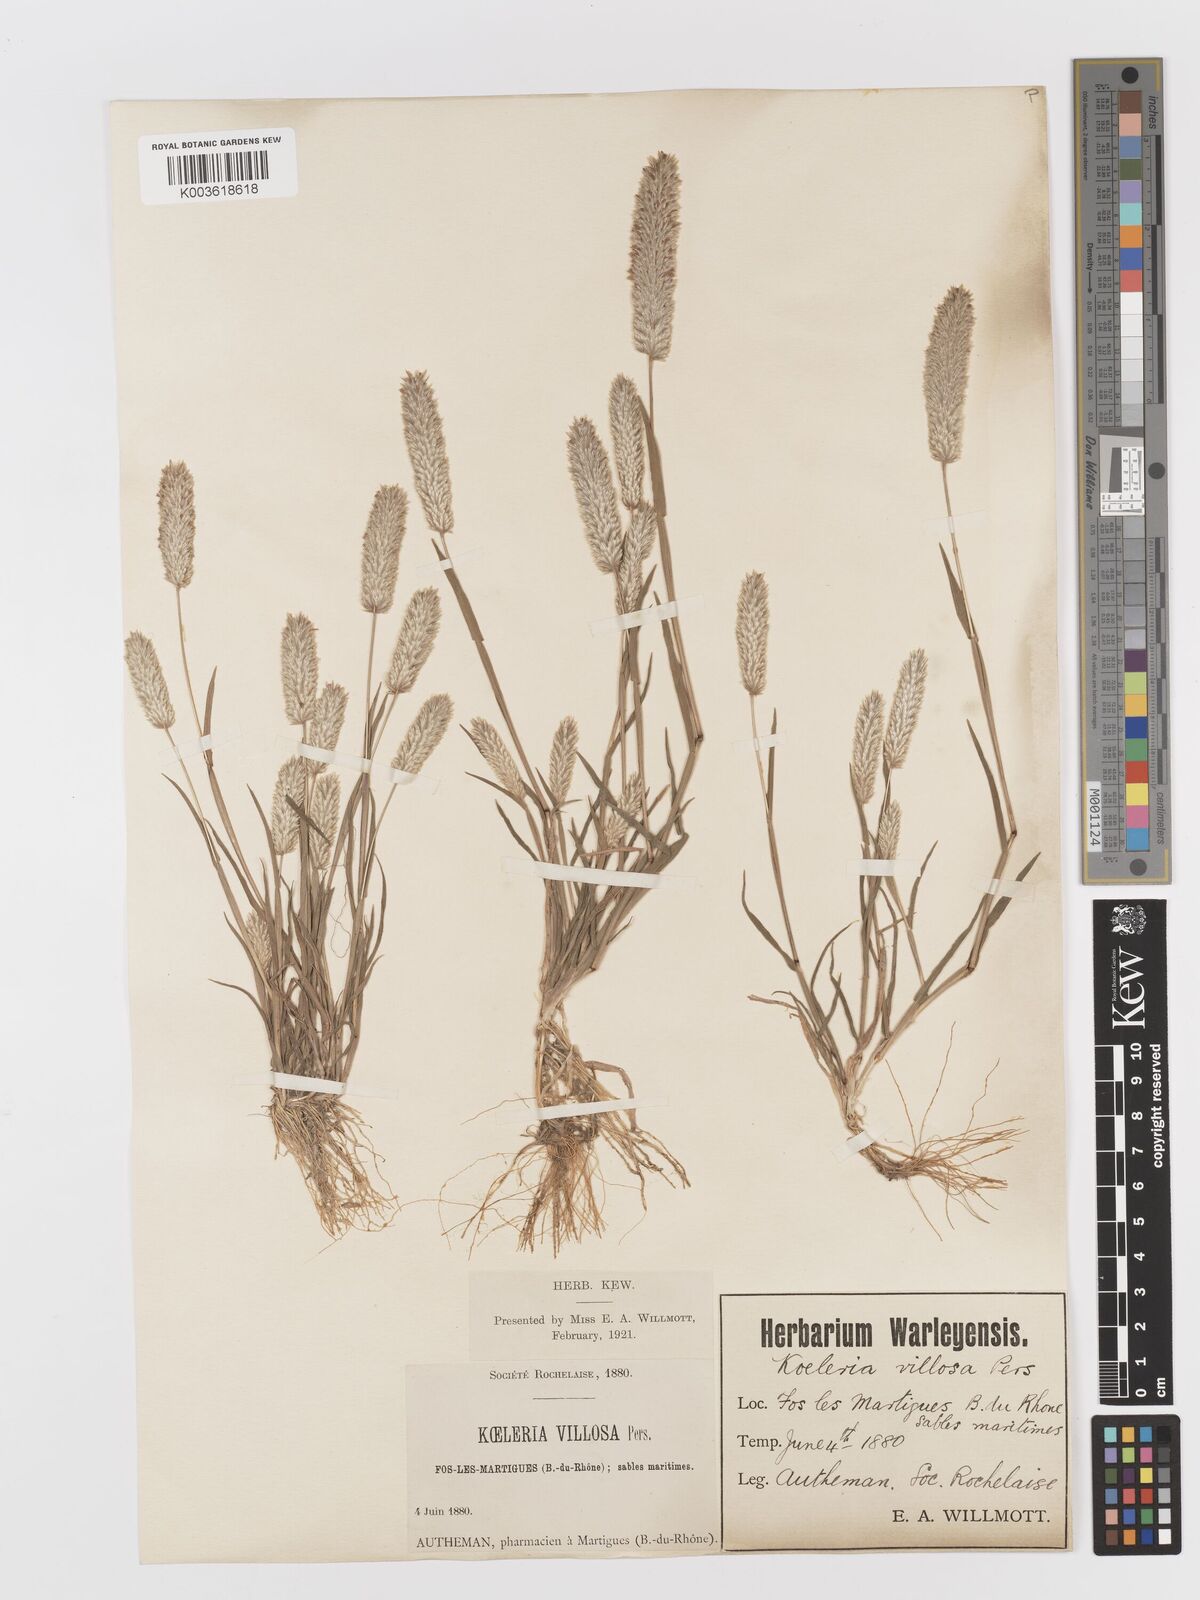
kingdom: Plantae
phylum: Tracheophyta
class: Liliopsida
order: Poales
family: Poaceae
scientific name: Poaceae
